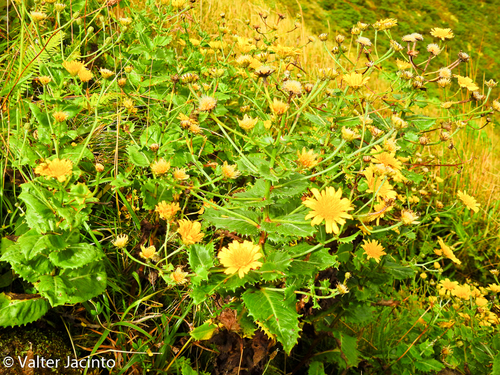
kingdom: Plantae
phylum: Tracheophyta
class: Magnoliopsida
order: Asterales
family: Asteraceae
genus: Tolpis
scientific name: Tolpis azorica
